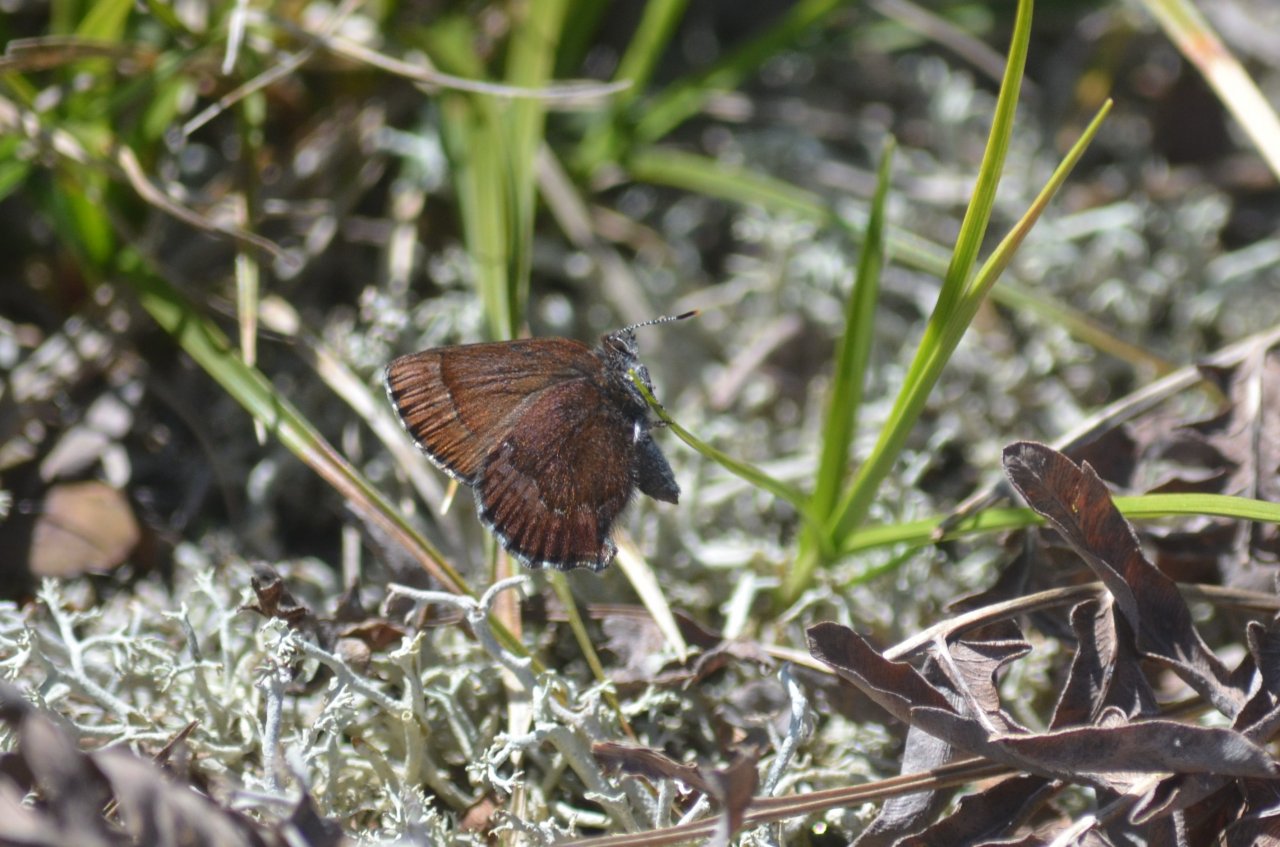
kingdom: Animalia
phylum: Arthropoda
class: Insecta
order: Lepidoptera
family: Lycaenidae
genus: Incisalia
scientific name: Incisalia irioides
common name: Brown Elfin
